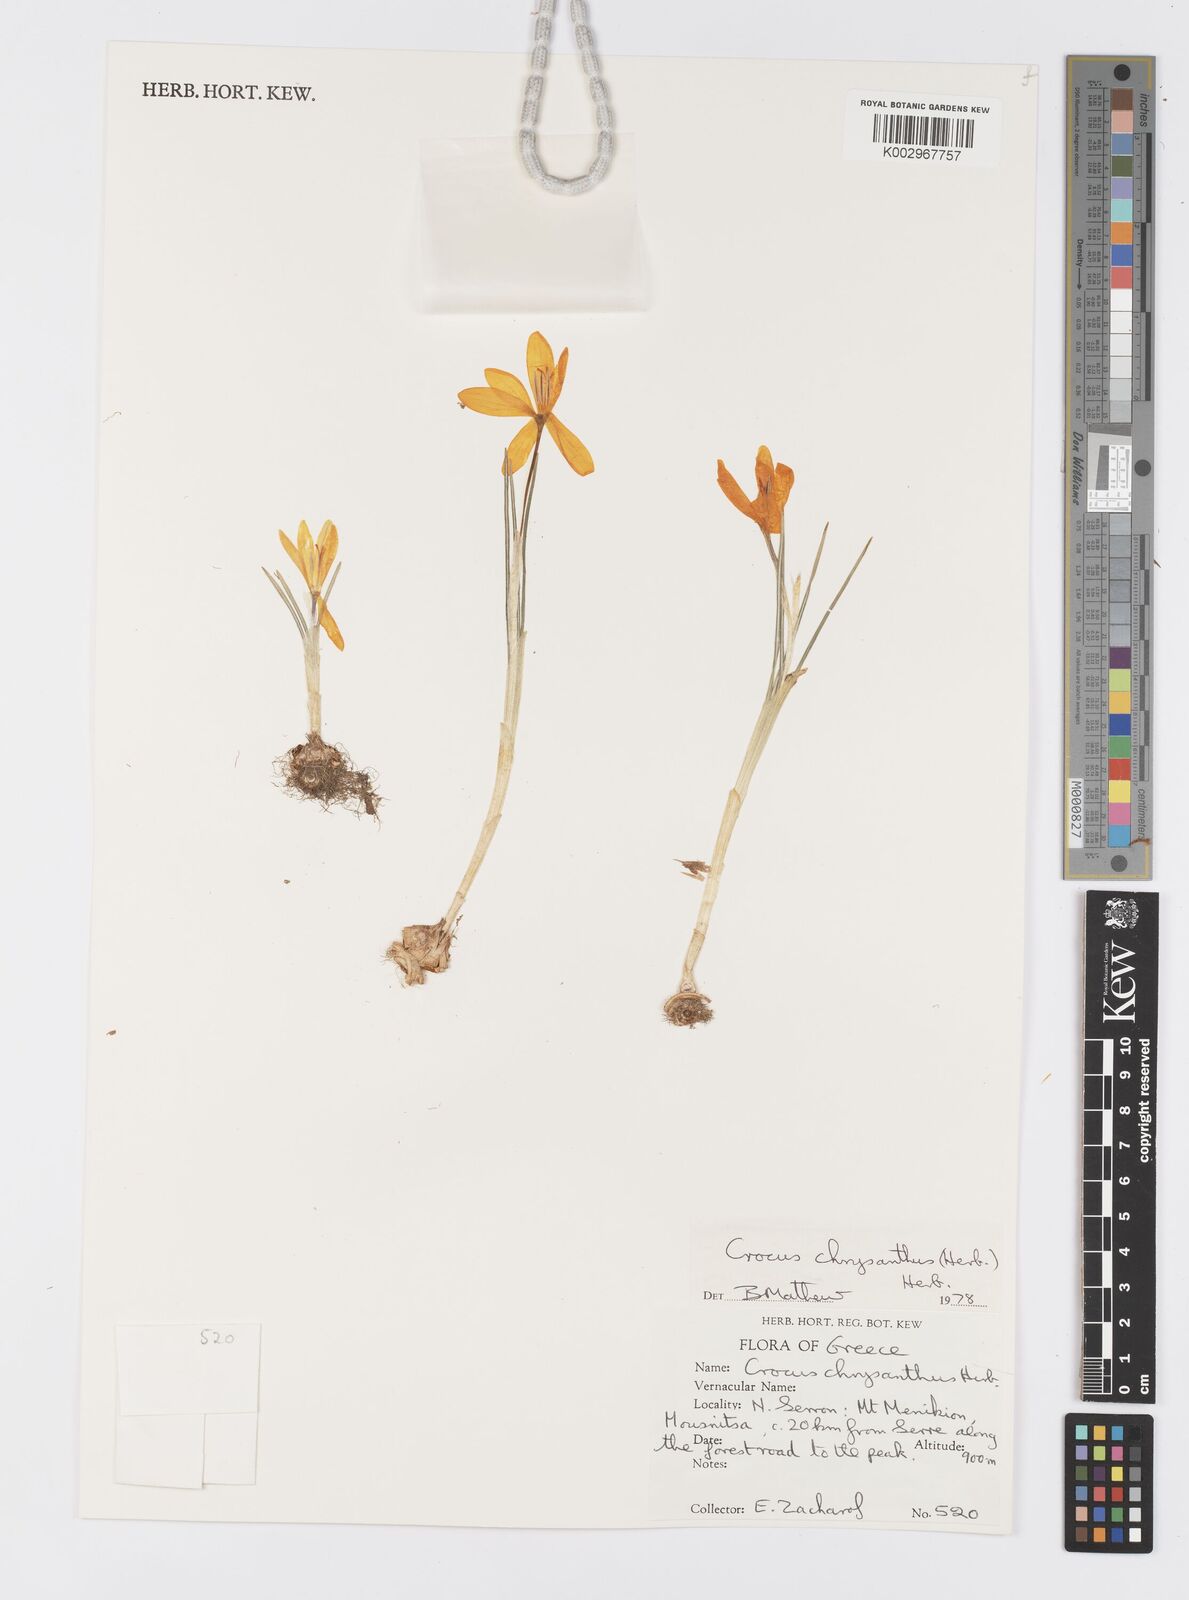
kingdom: Plantae
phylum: Tracheophyta
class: Liliopsida
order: Asparagales
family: Iridaceae
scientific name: Iridaceae
